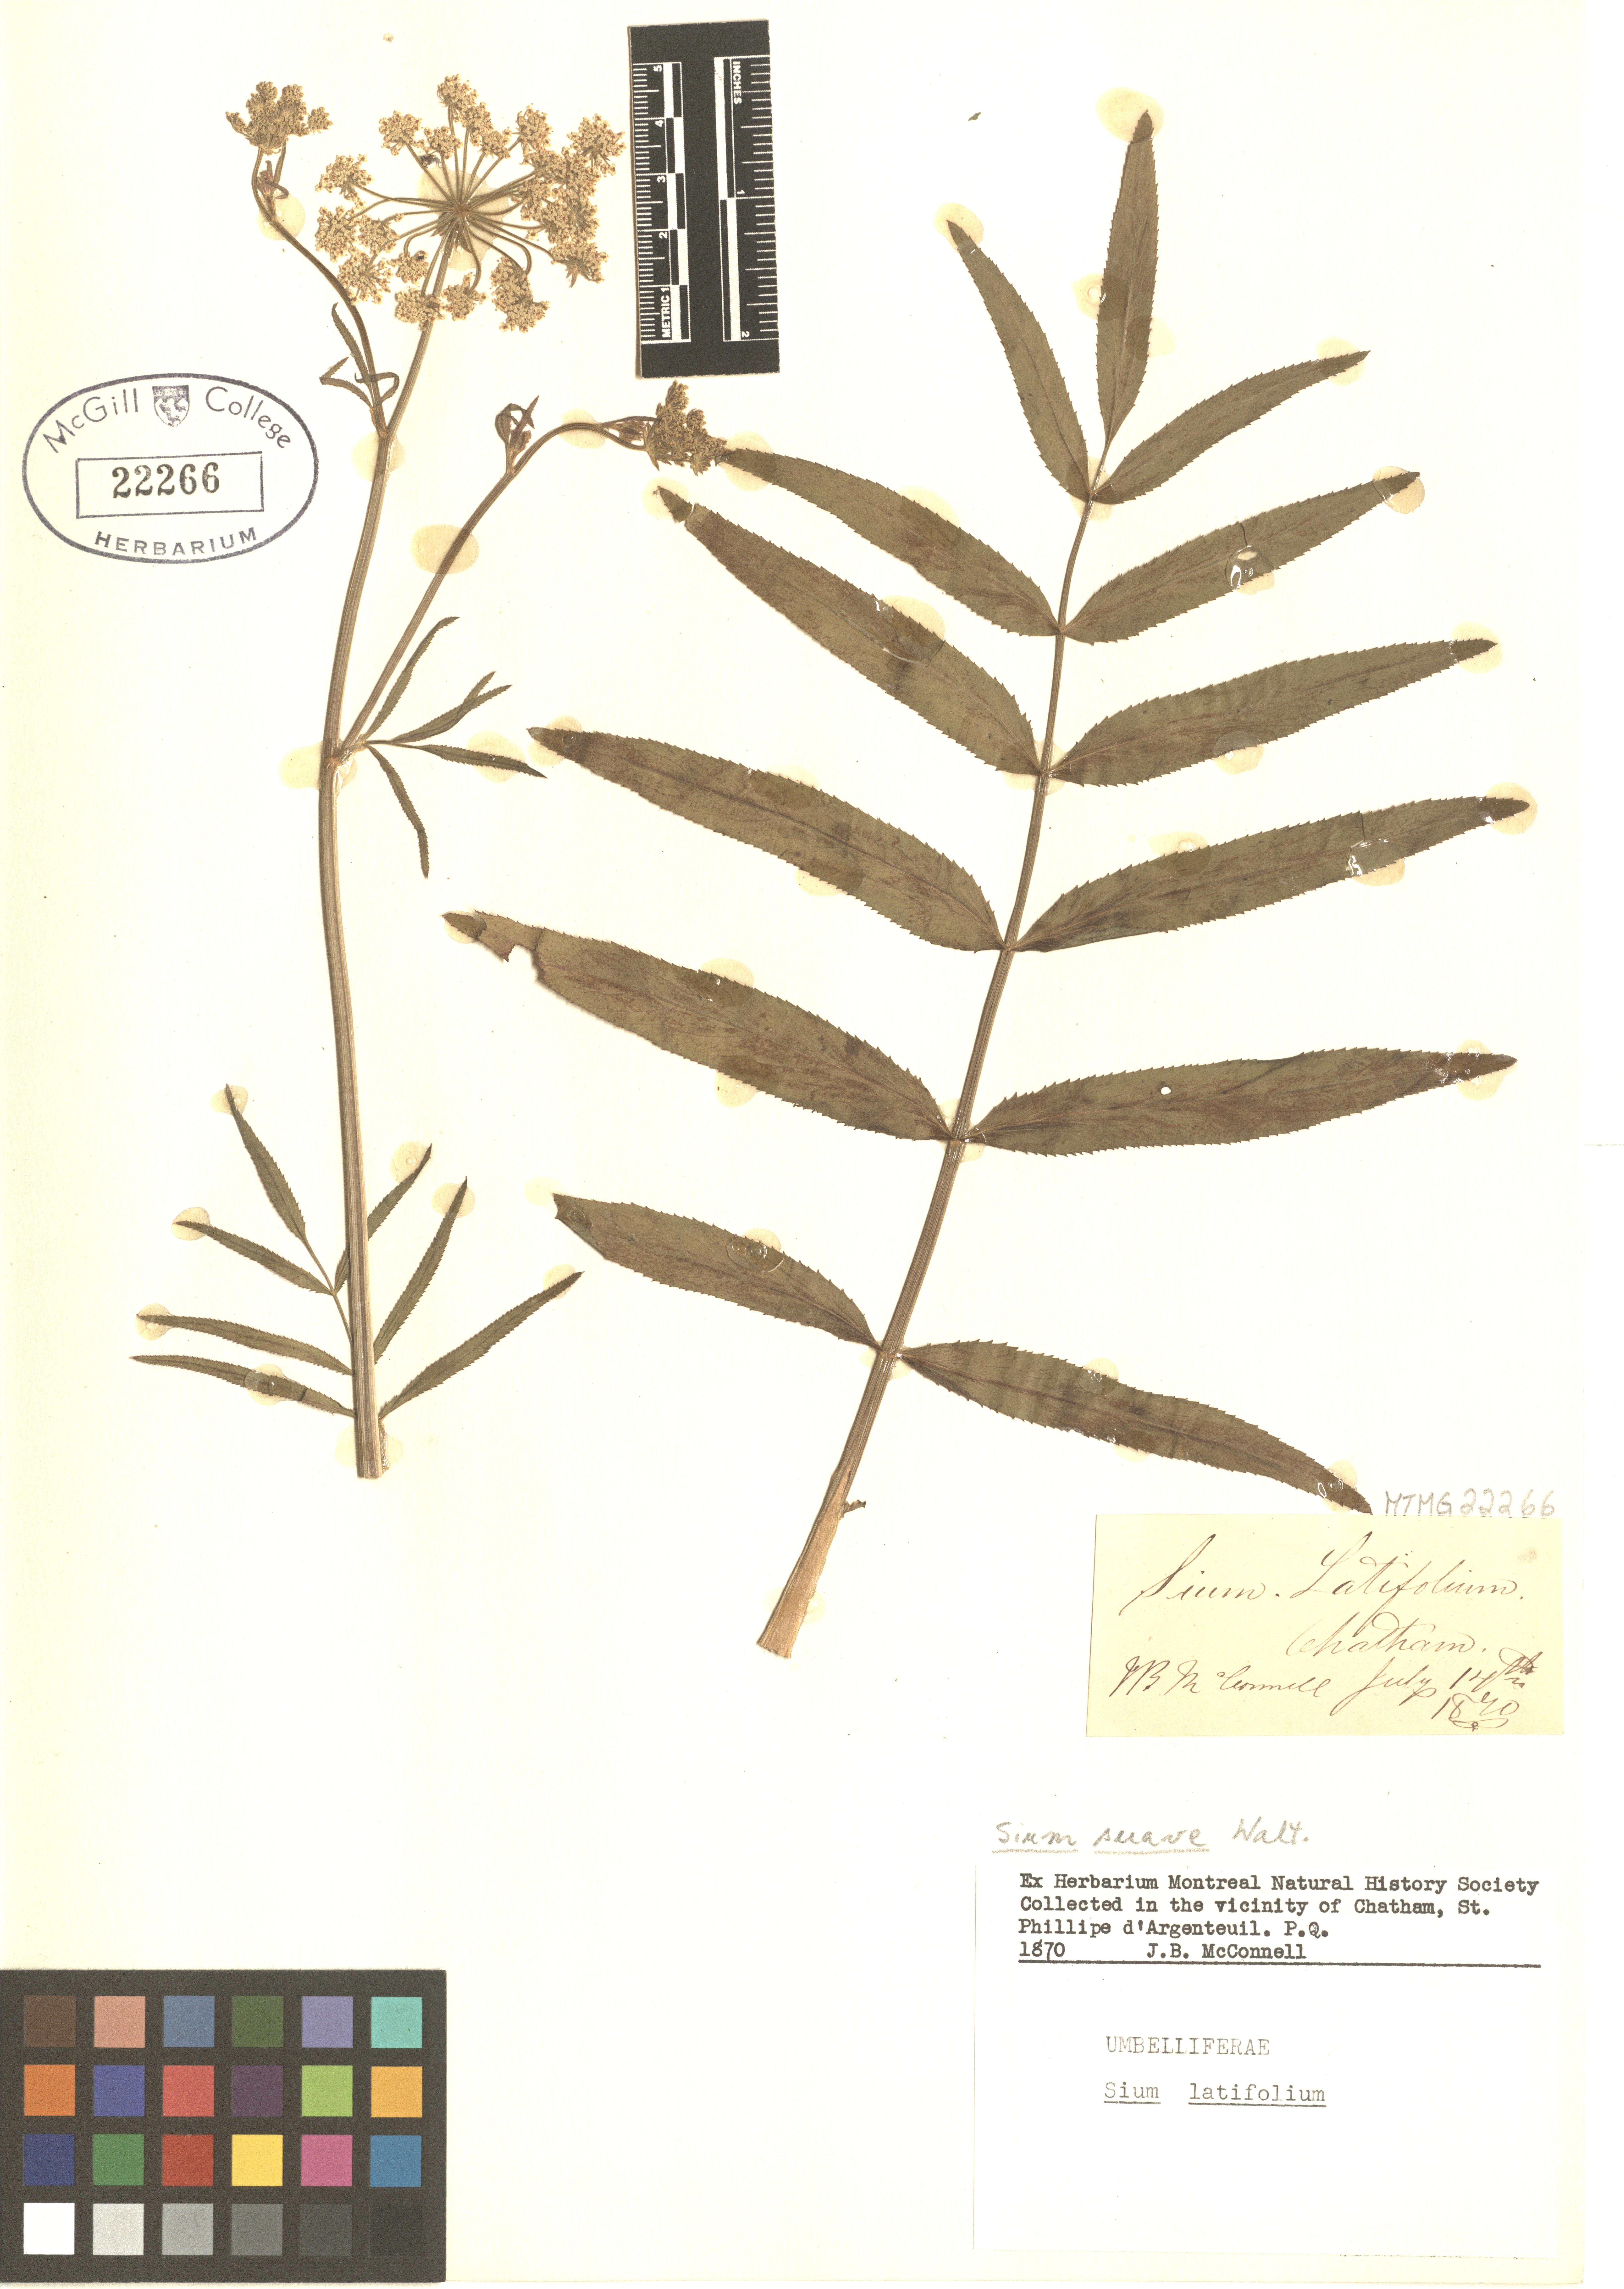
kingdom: Plantae
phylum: Tracheophyta
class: Magnoliopsida
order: Apiales
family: Apiaceae
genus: Sium
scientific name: Sium latifolium
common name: Greater water-parsnip
